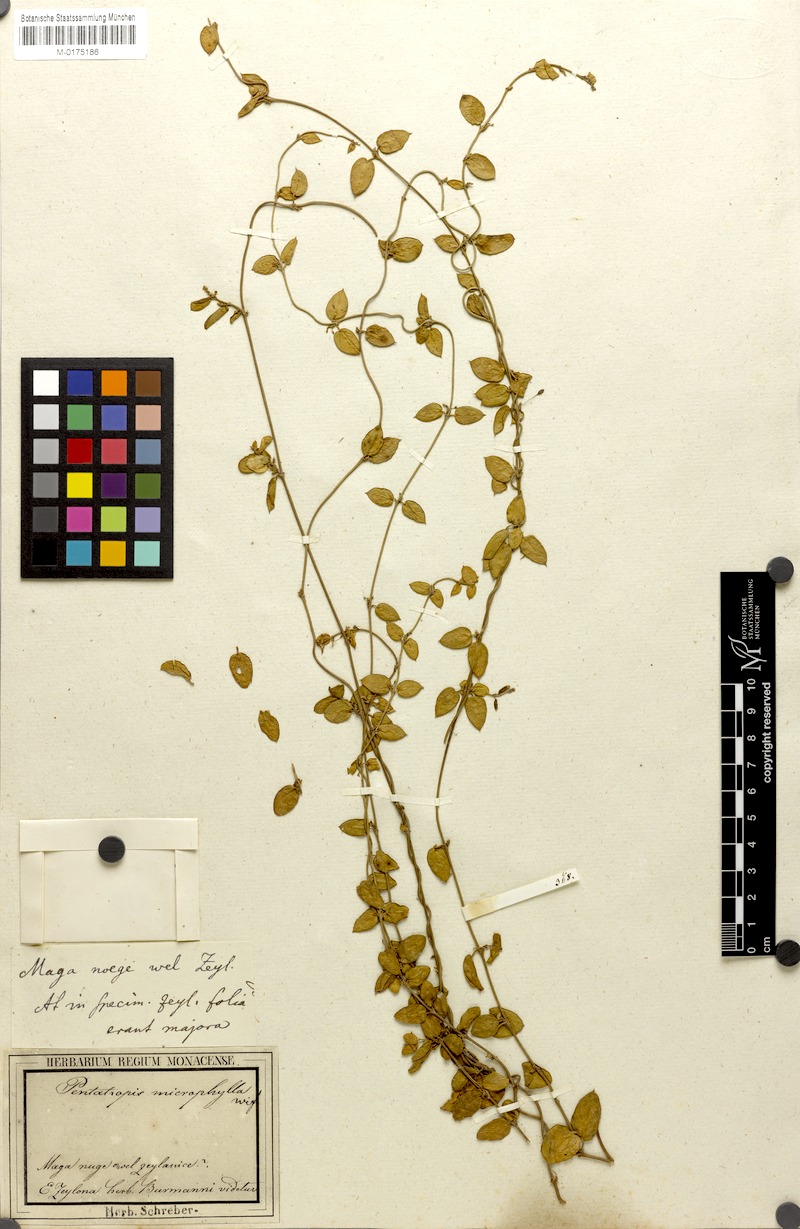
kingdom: Plantae
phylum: Tracheophyta
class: Magnoliopsida
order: Gentianales
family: Apocynaceae
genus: Pentatropis
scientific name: Pentatropis capensis
